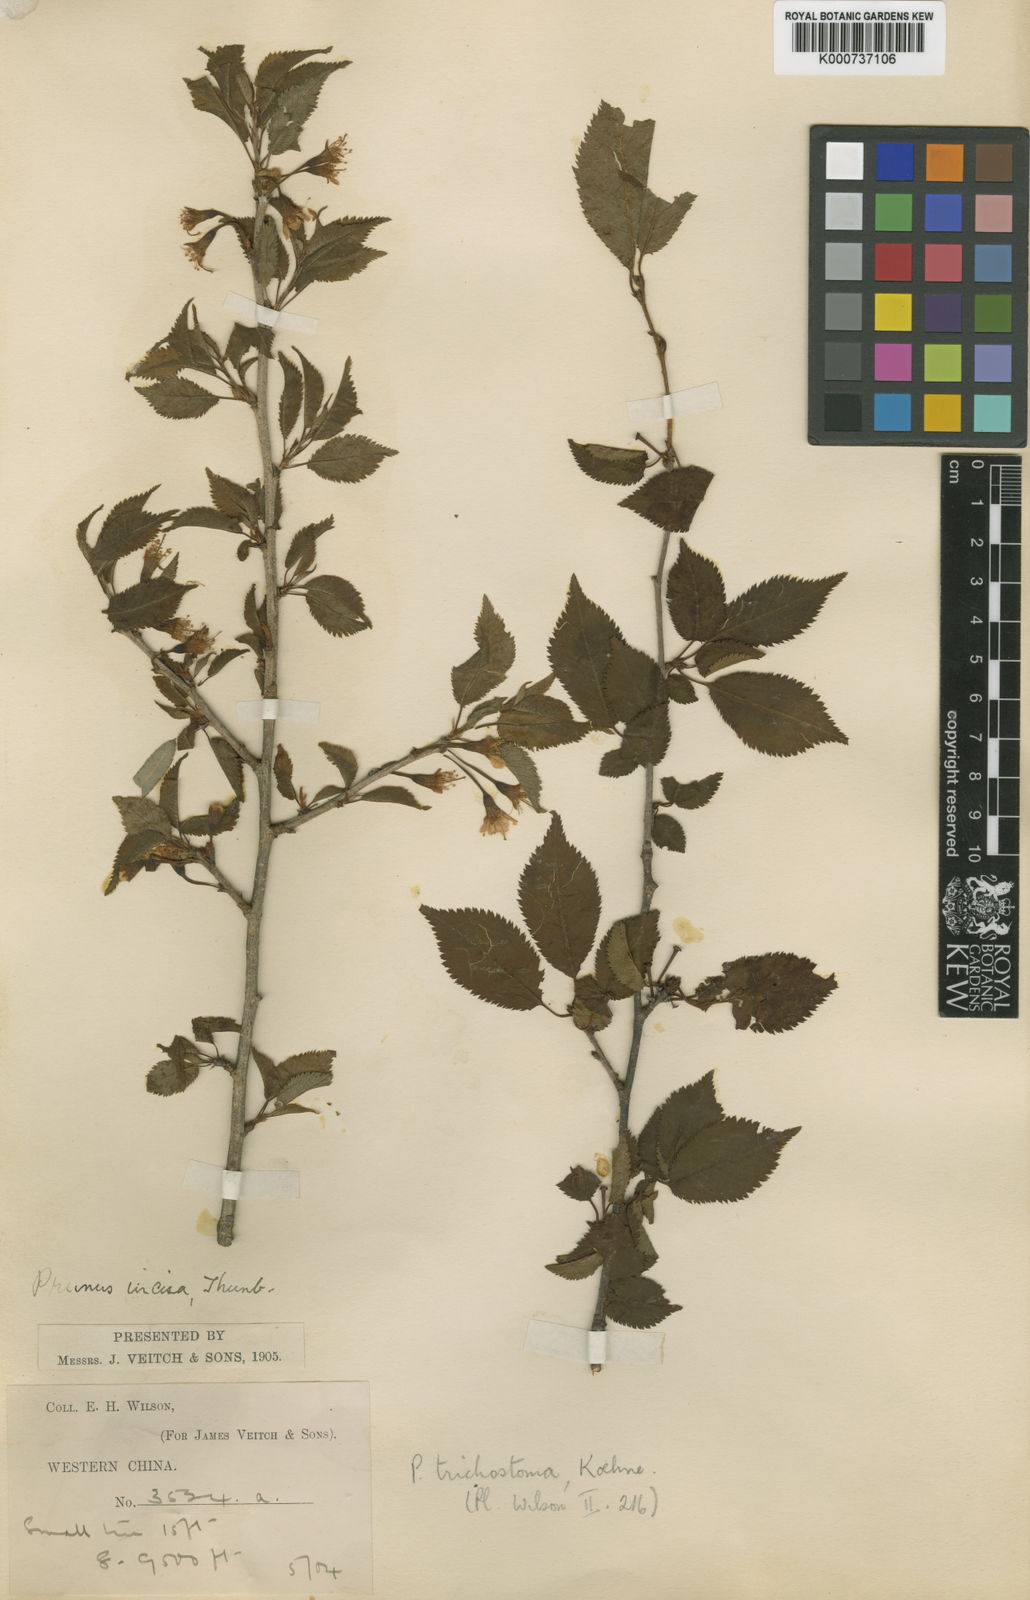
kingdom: Plantae
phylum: Tracheophyta
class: Magnoliopsida
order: Rosales
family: Rosaceae
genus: Prunus
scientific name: Prunus trichostoma
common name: Ribbed cherry
